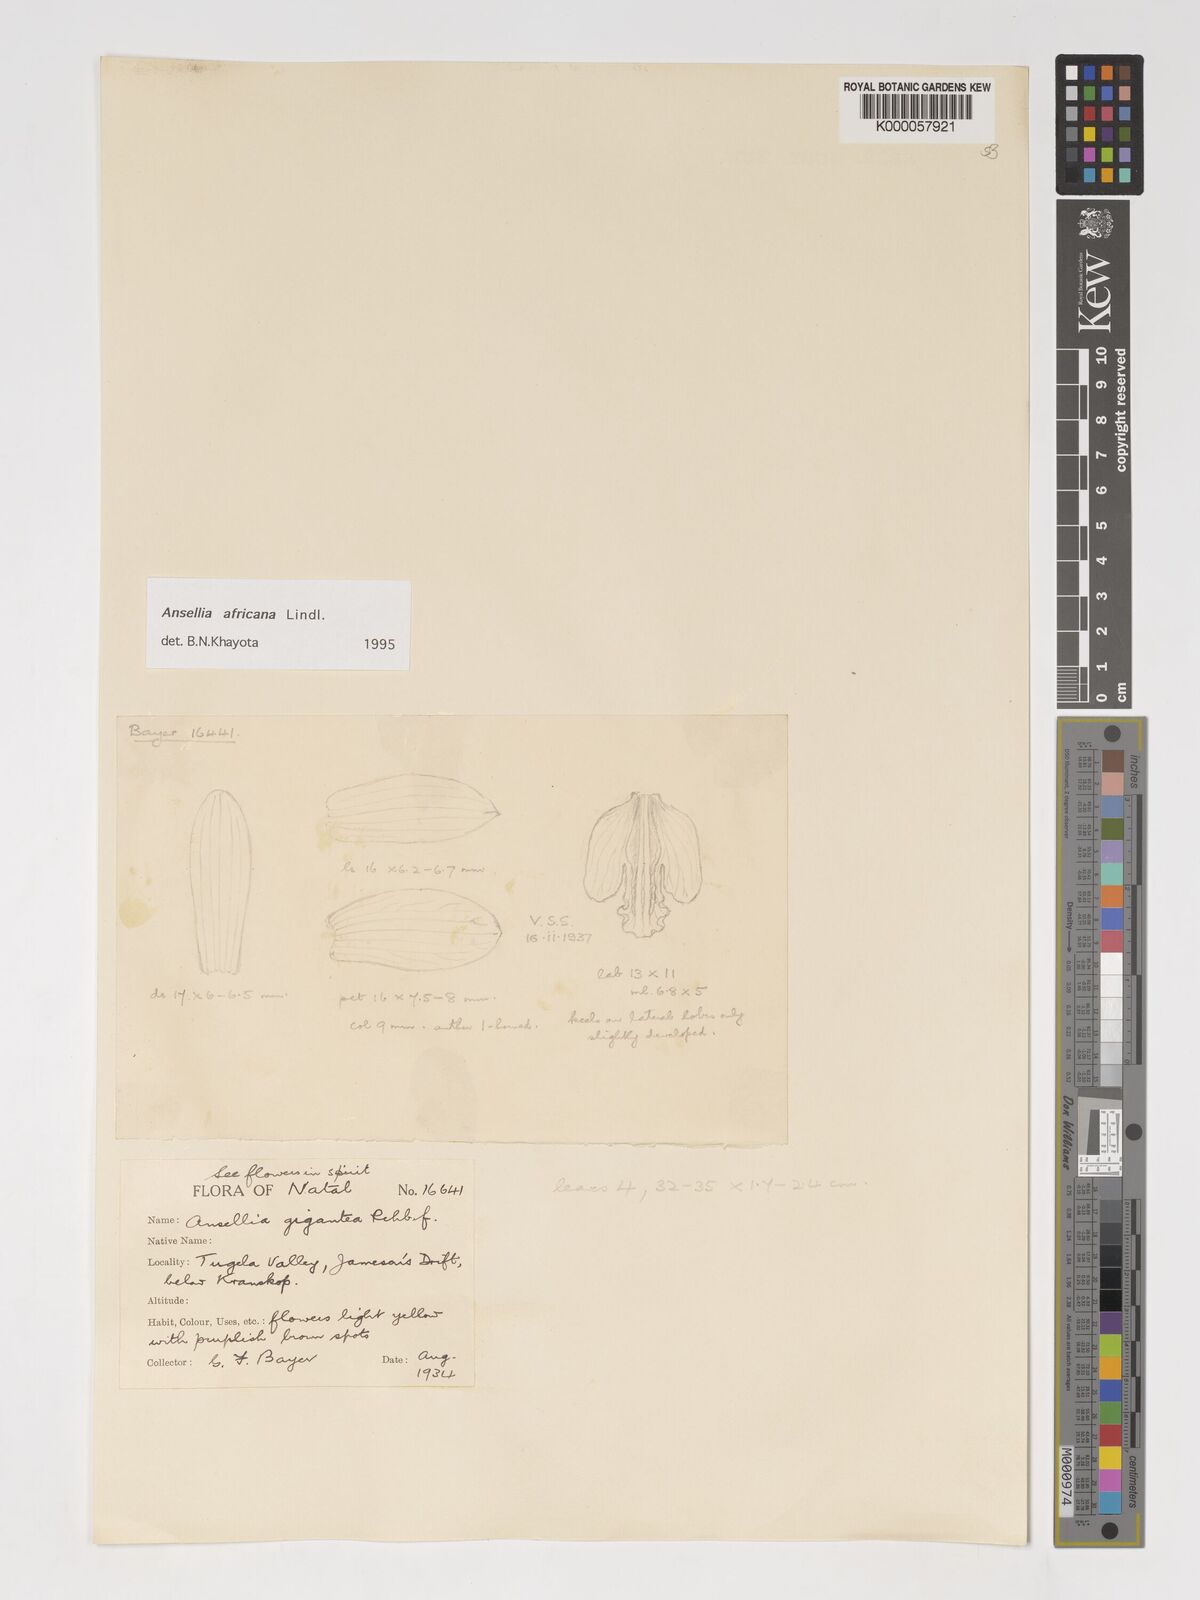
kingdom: Plantae
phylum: Tracheophyta
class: Liliopsida
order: Asparagales
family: Orchidaceae
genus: Ansellia
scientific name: Ansellia africana
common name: African ansellia
